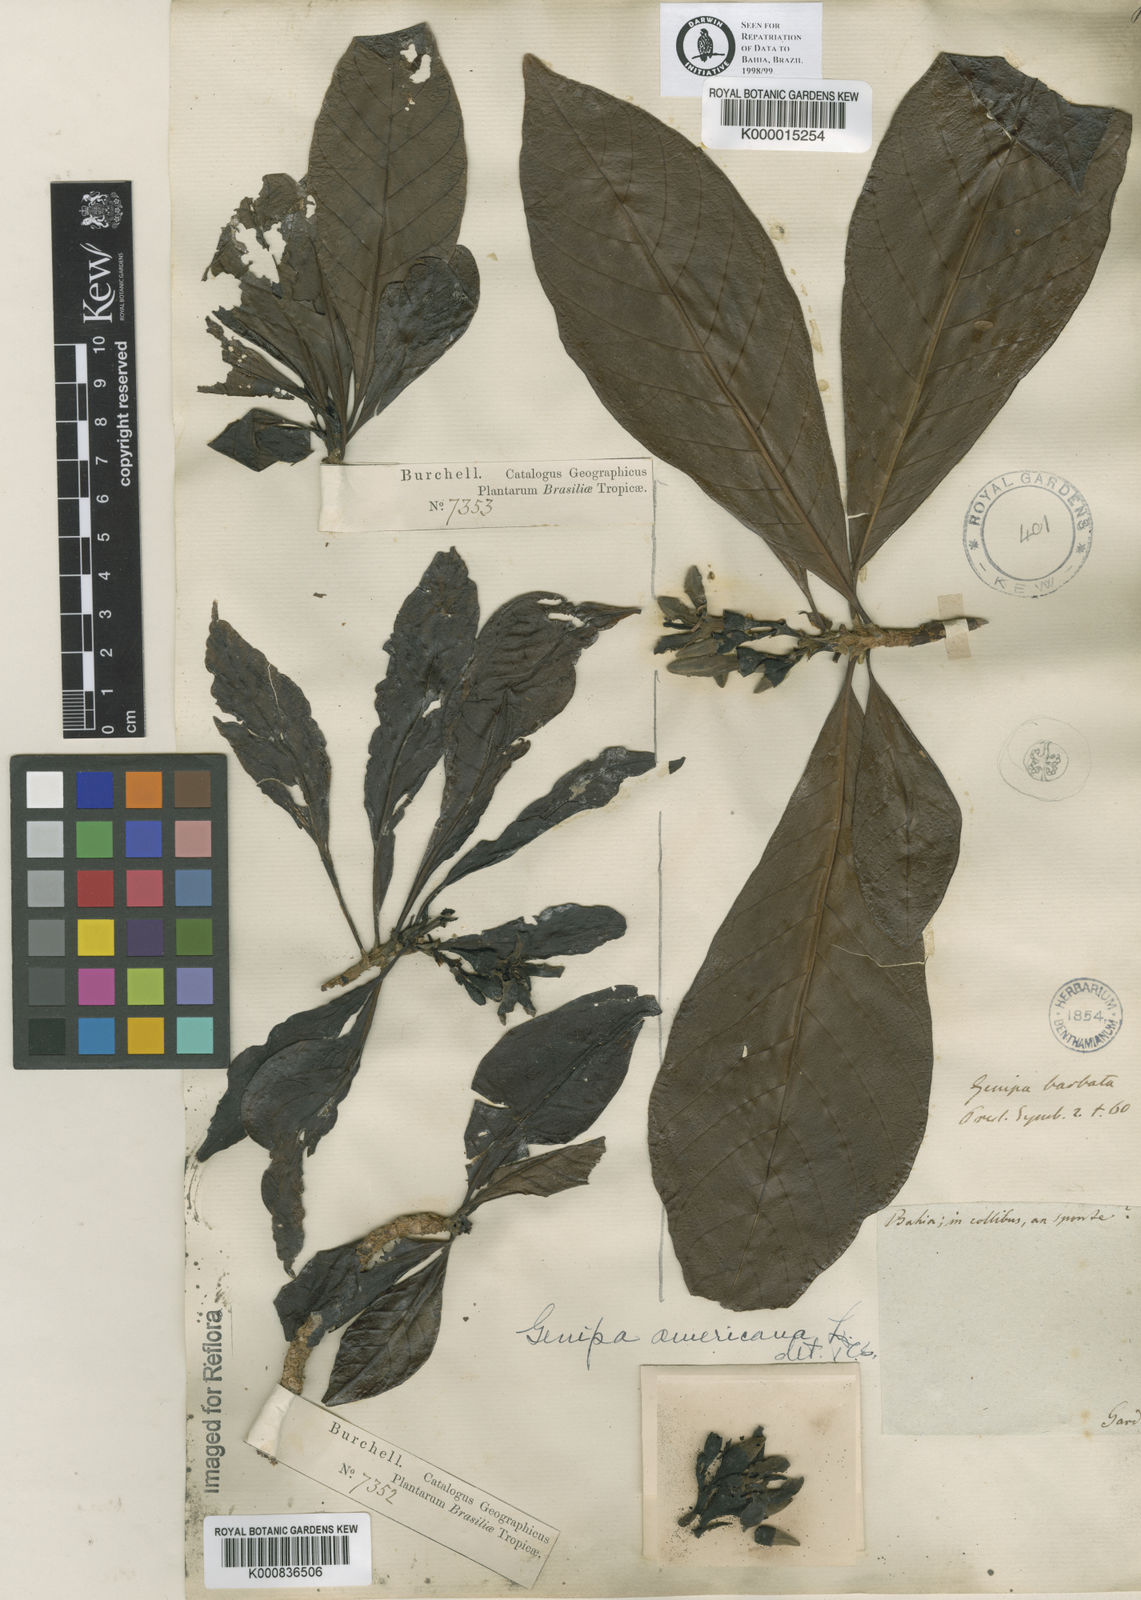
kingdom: Plantae
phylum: Tracheophyta
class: Magnoliopsida
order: Gentianales
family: Rubiaceae
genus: Genipa
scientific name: Genipa americana
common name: Genipap
